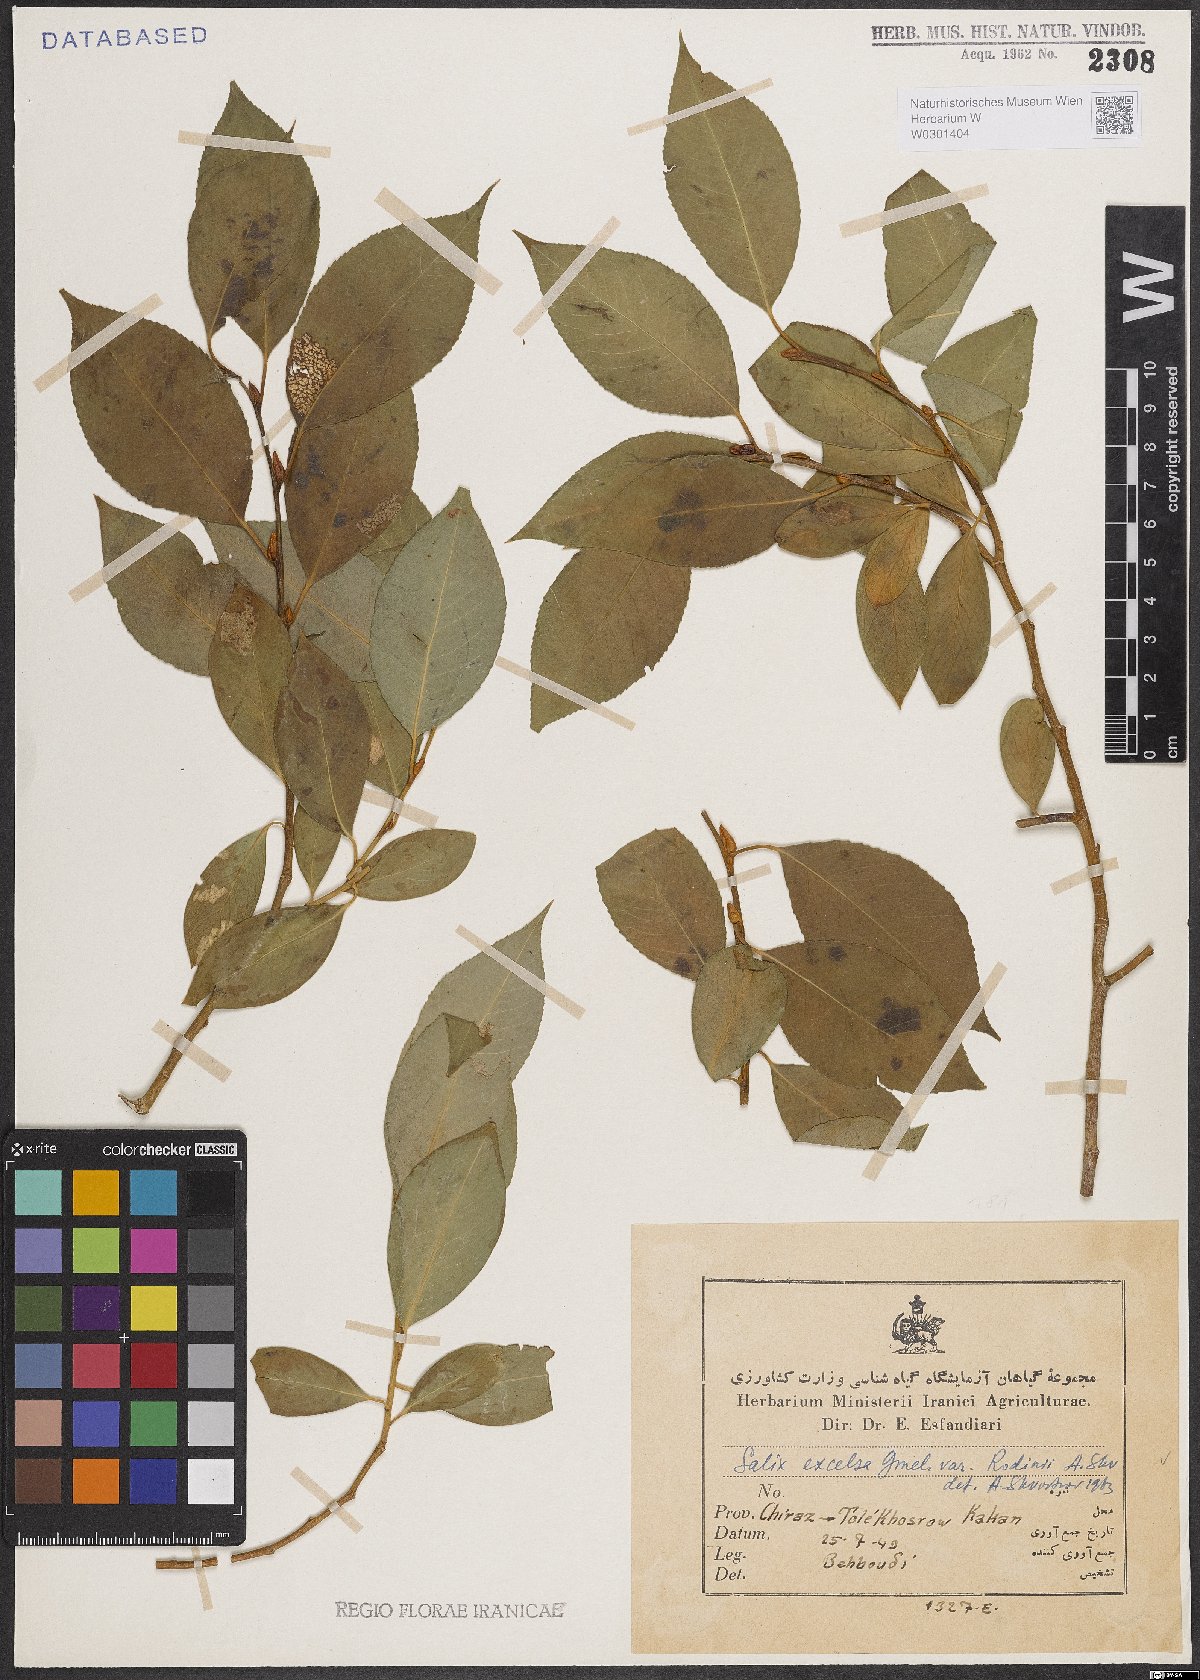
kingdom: Plantae
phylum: Tracheophyta
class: Magnoliopsida
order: Malpighiales
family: Salicaceae
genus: Salix
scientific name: Salix excelsa
